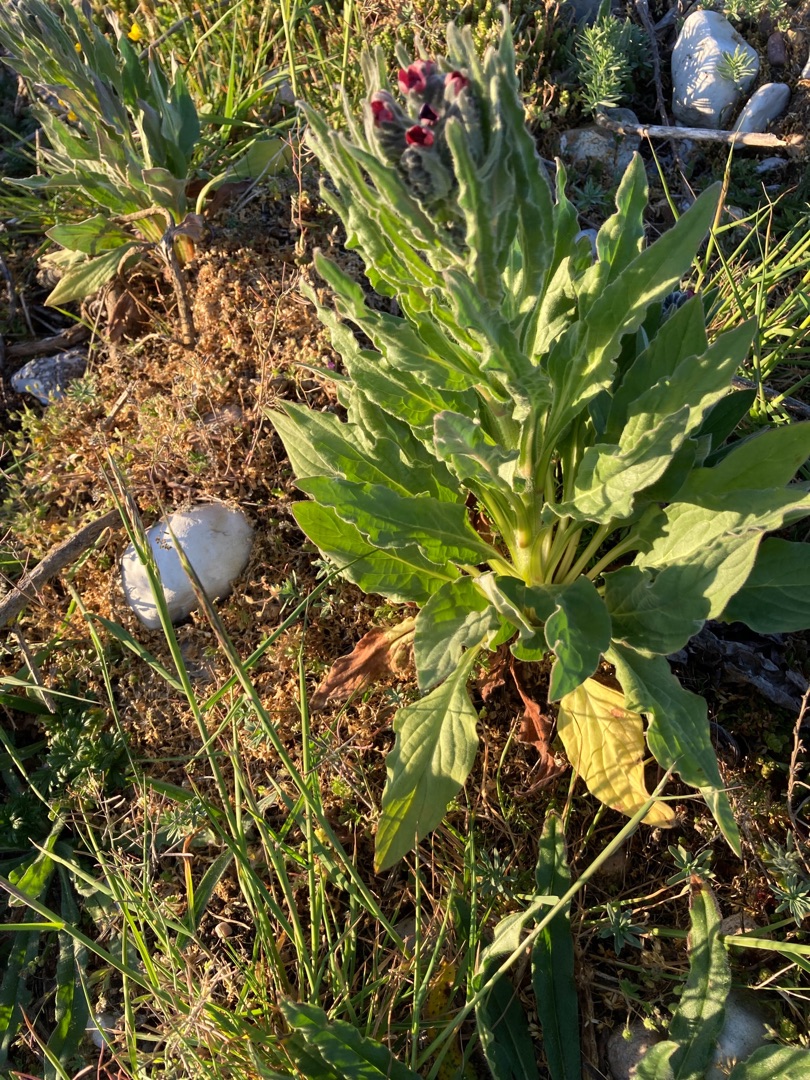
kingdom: Plantae
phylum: Tracheophyta
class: Magnoliopsida
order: Boraginales
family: Boraginaceae
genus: Cynoglossum
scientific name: Cynoglossum officinale
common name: Hundetunge
